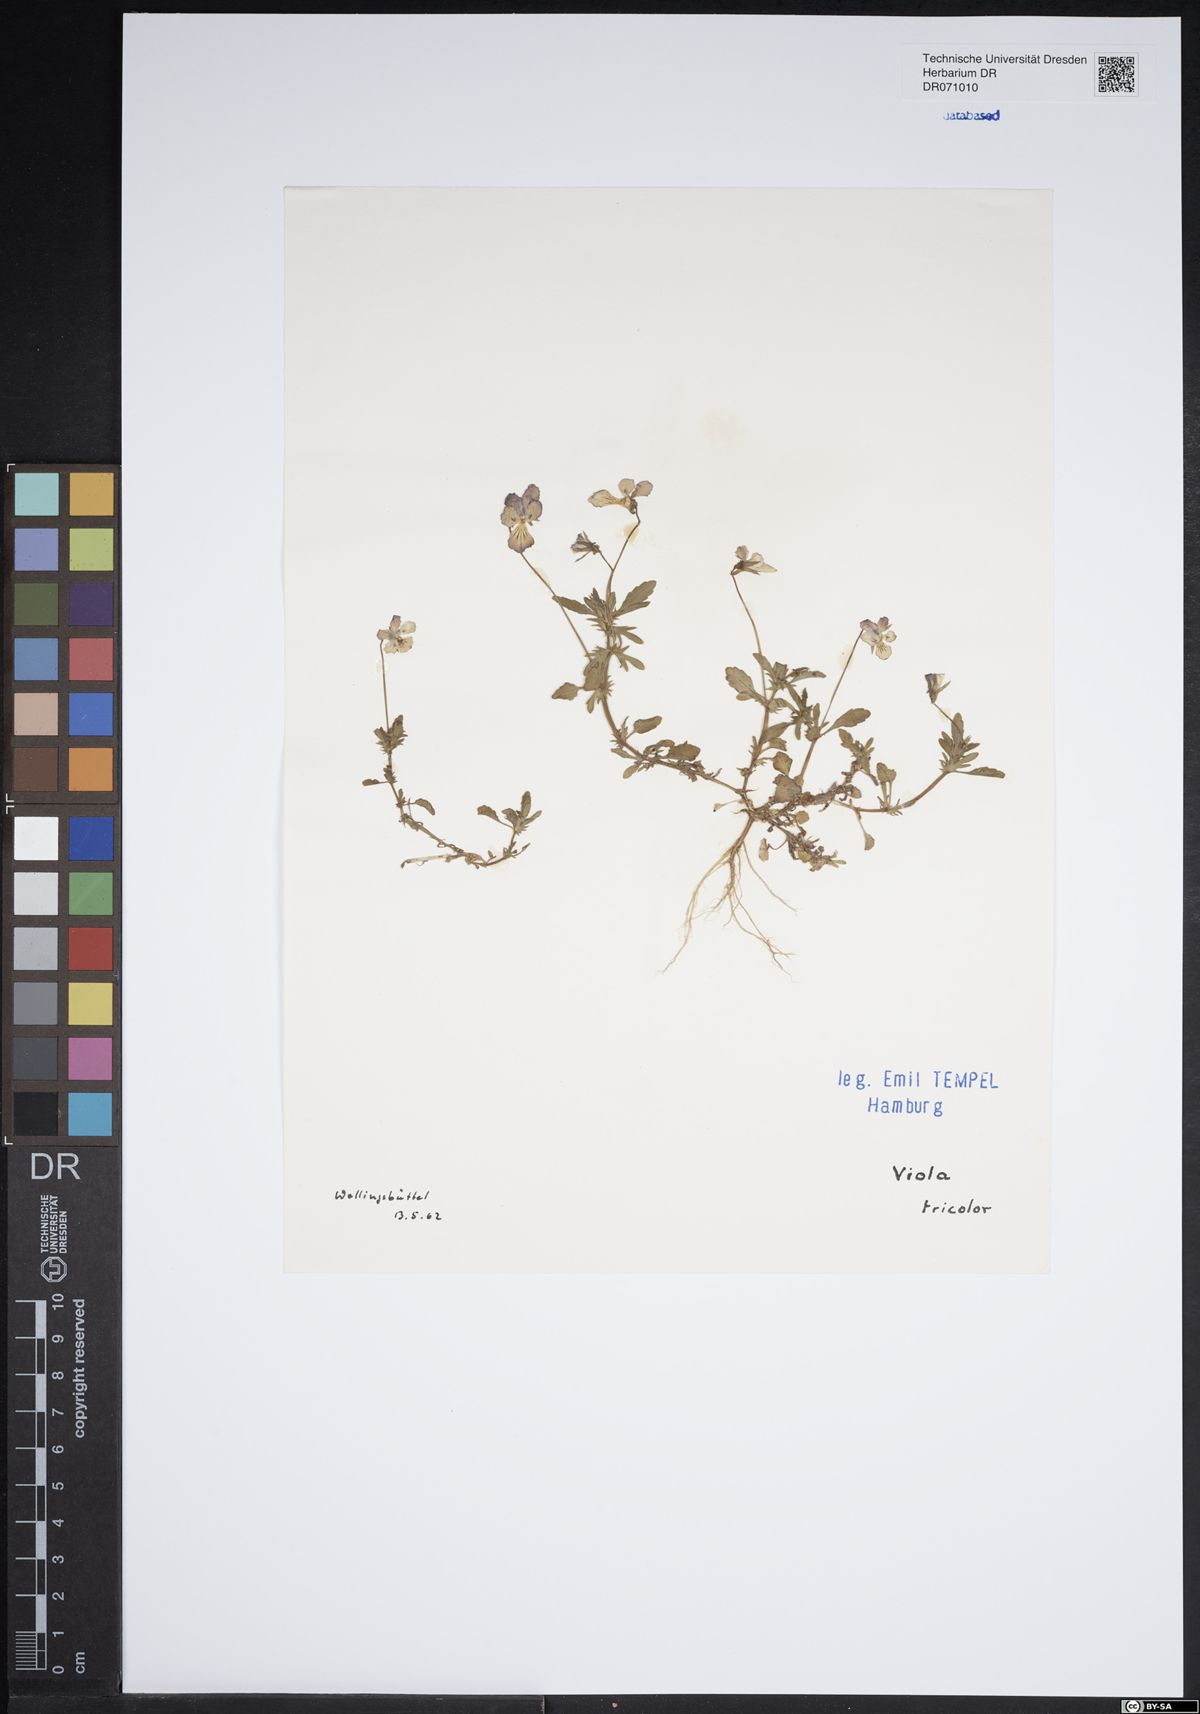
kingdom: Plantae
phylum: Tracheophyta
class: Magnoliopsida
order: Malpighiales
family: Violaceae
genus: Viola
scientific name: Viola tricolor
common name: Pansy
